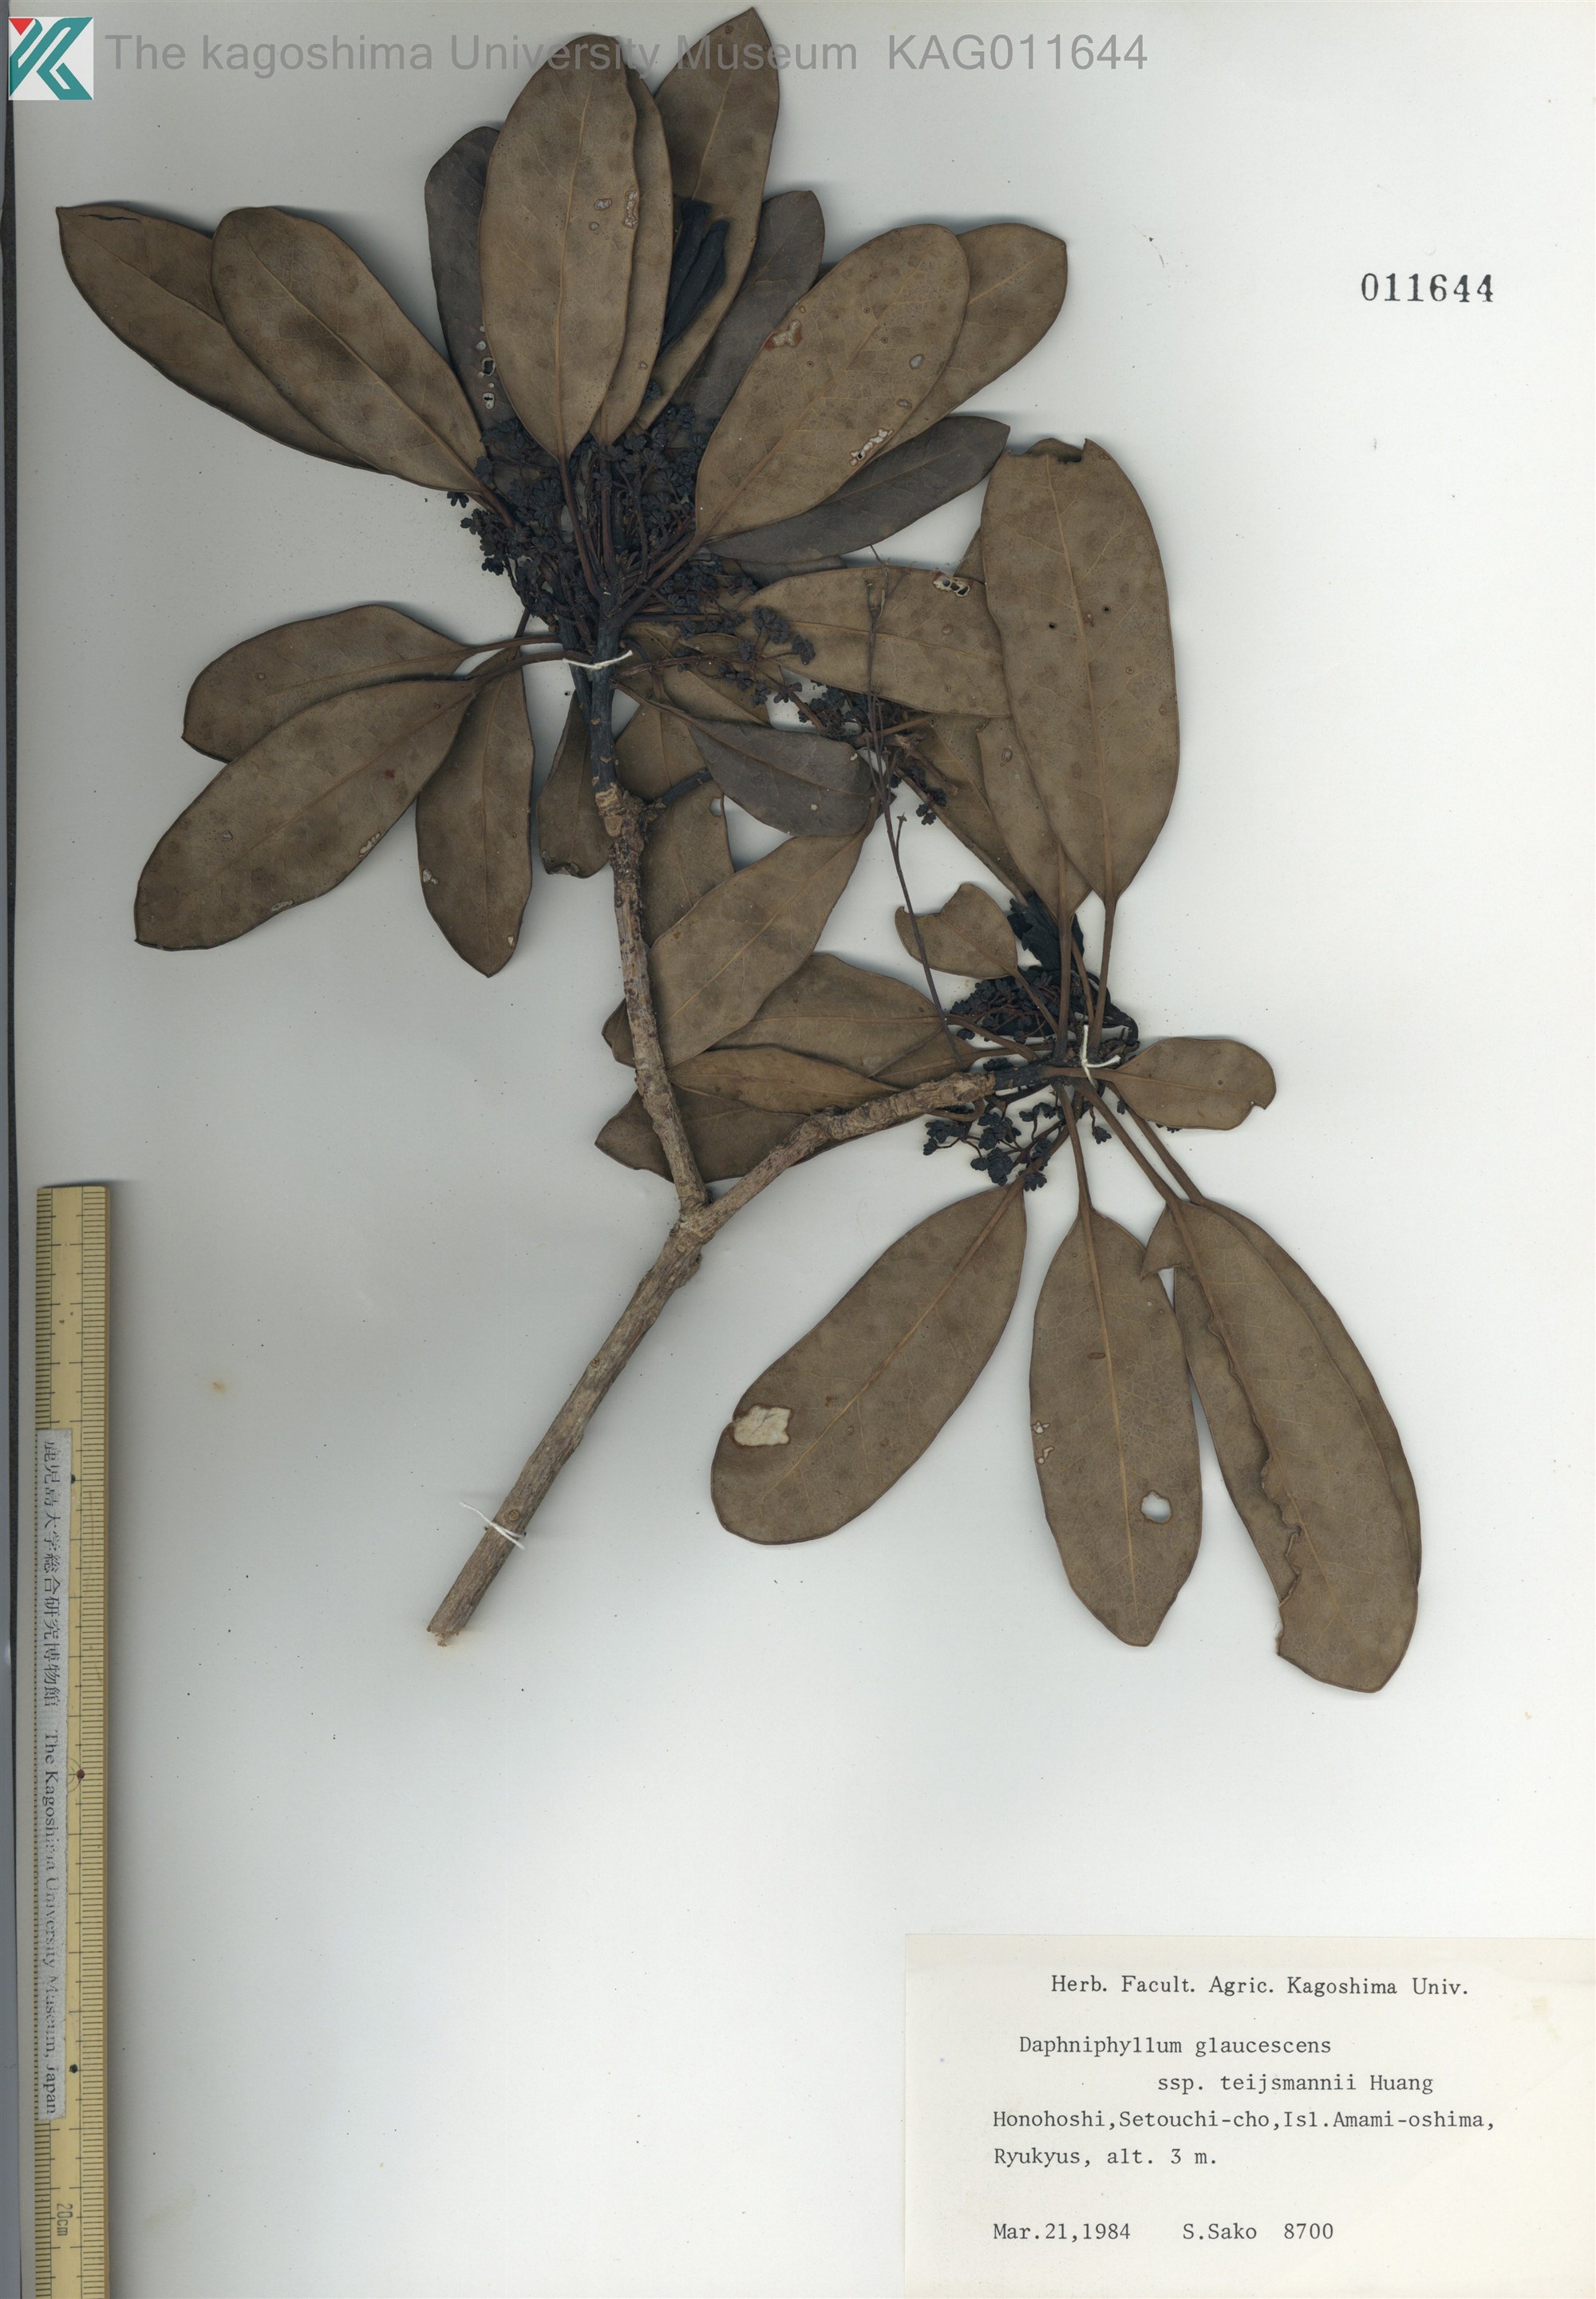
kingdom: Plantae
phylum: Tracheophyta
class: Magnoliopsida
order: Saxifragales
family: Daphniphyllaceae
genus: Daphniphyllum
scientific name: Daphniphyllum teijsmannii
